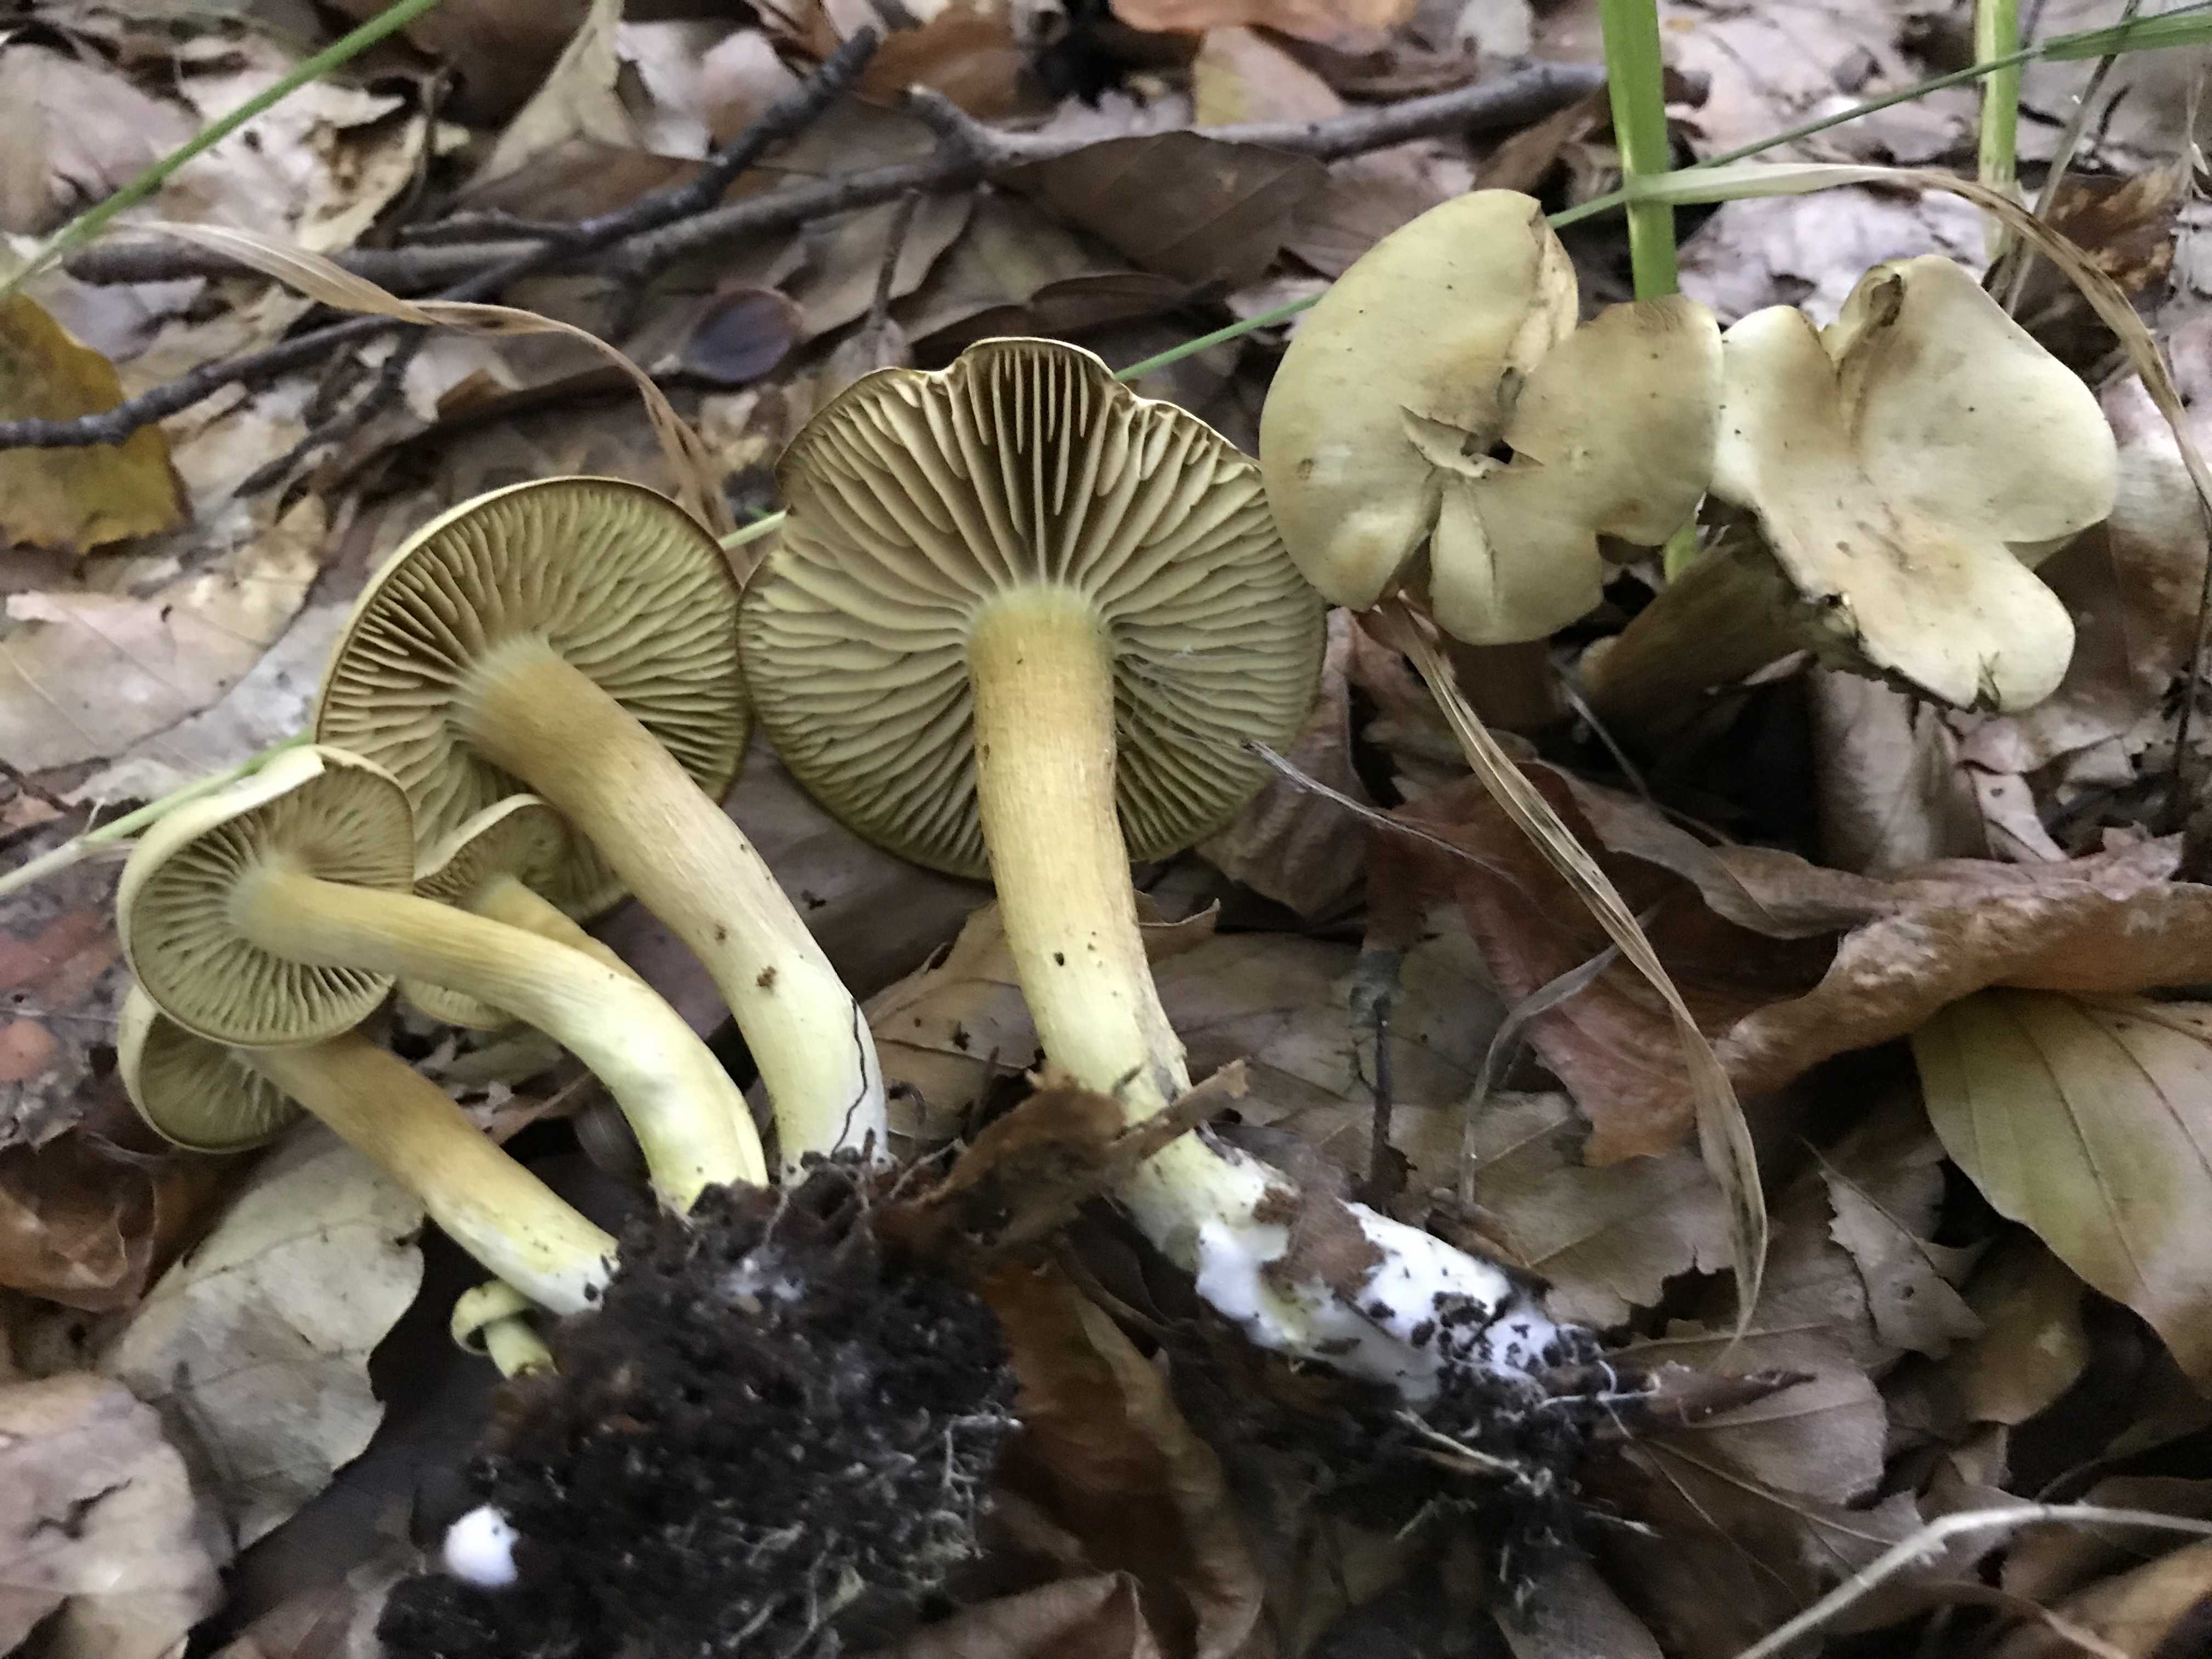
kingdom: Fungi
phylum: Basidiomycota
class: Agaricomycetes
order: Agaricales
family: Tricholomataceae
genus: Tricholoma
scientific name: Tricholoma sulphureum
